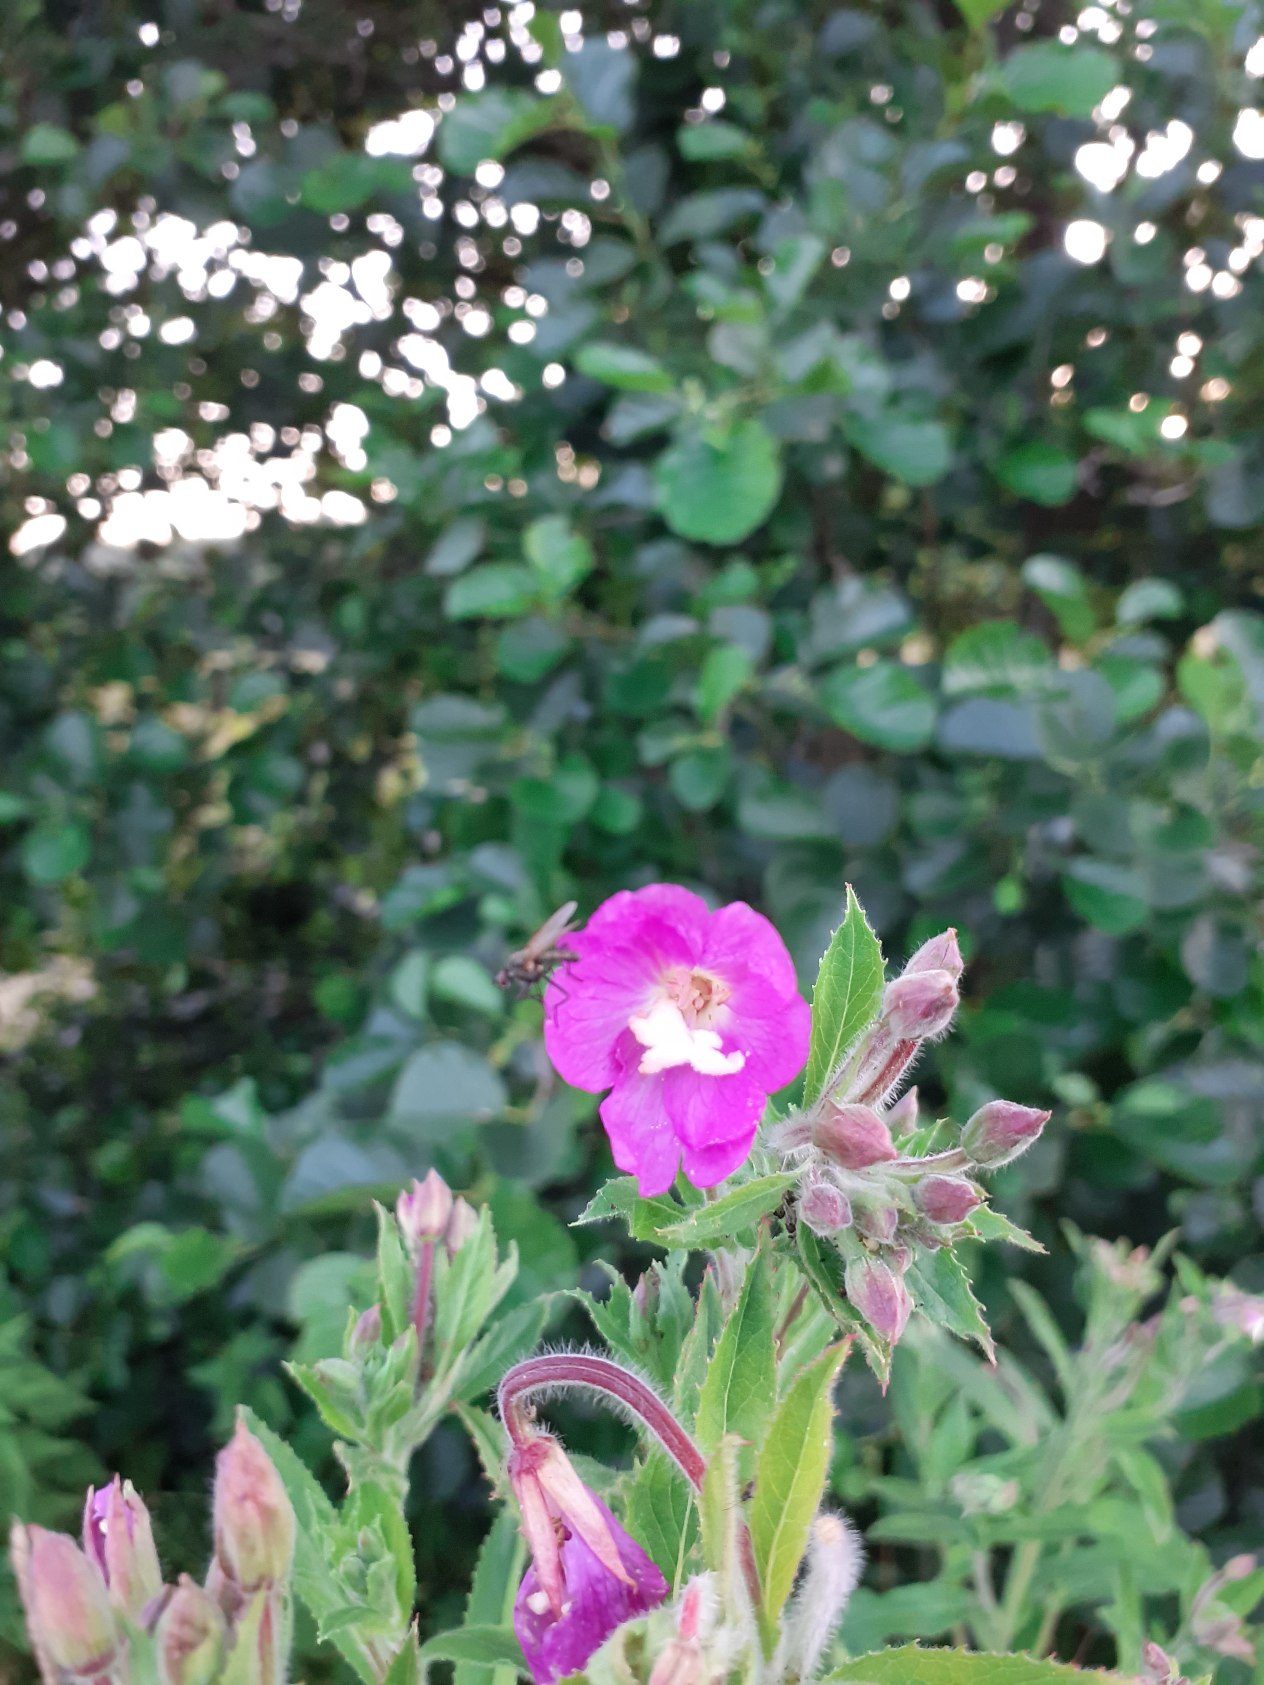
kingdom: Plantae
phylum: Tracheophyta
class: Magnoliopsida
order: Myrtales
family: Onagraceae
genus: Epilobium
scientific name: Epilobium hirsutum
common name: Lådden dueurt
